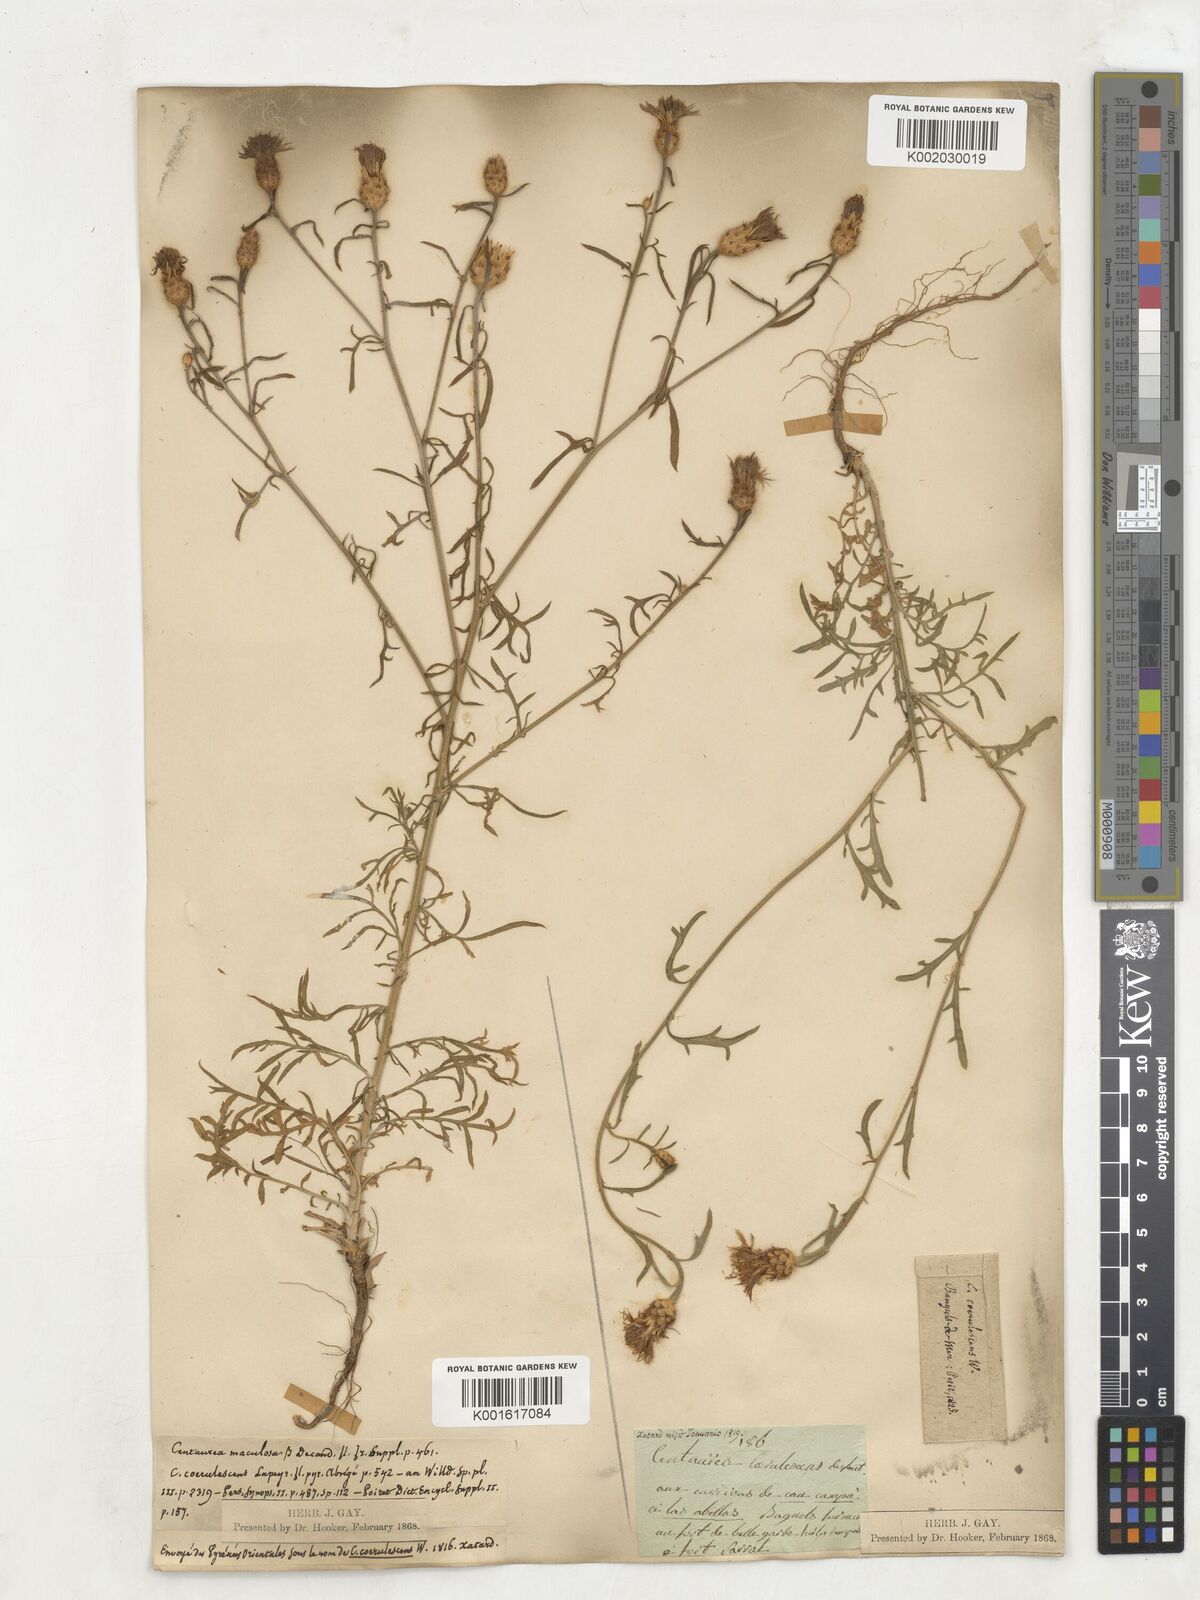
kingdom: Plantae
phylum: Tracheophyta
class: Magnoliopsida
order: Asterales
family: Asteraceae
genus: Centaurea
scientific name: Centaurea ornata
